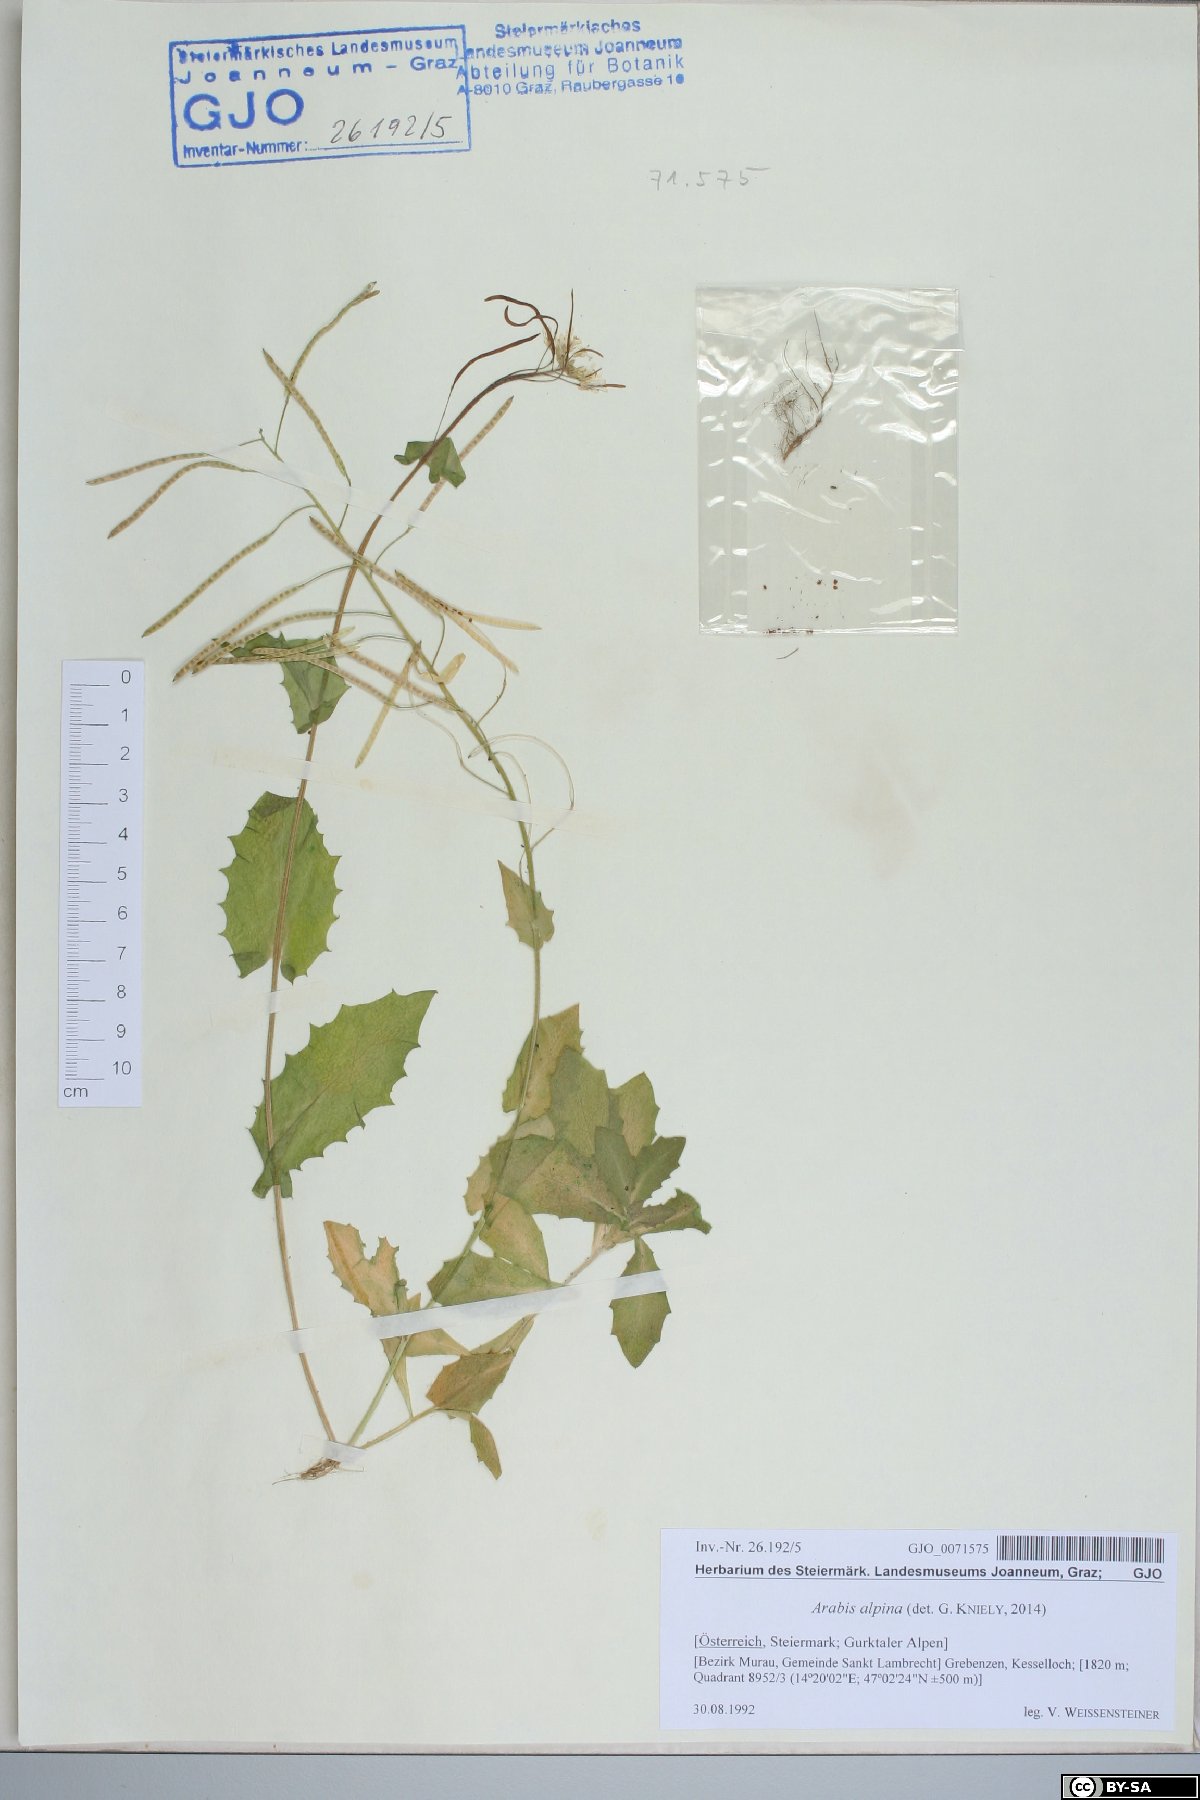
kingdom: Plantae
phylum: Tracheophyta
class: Magnoliopsida
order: Brassicales
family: Brassicaceae
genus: Arabis
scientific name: Arabis alpina
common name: Alpine rock-cress
